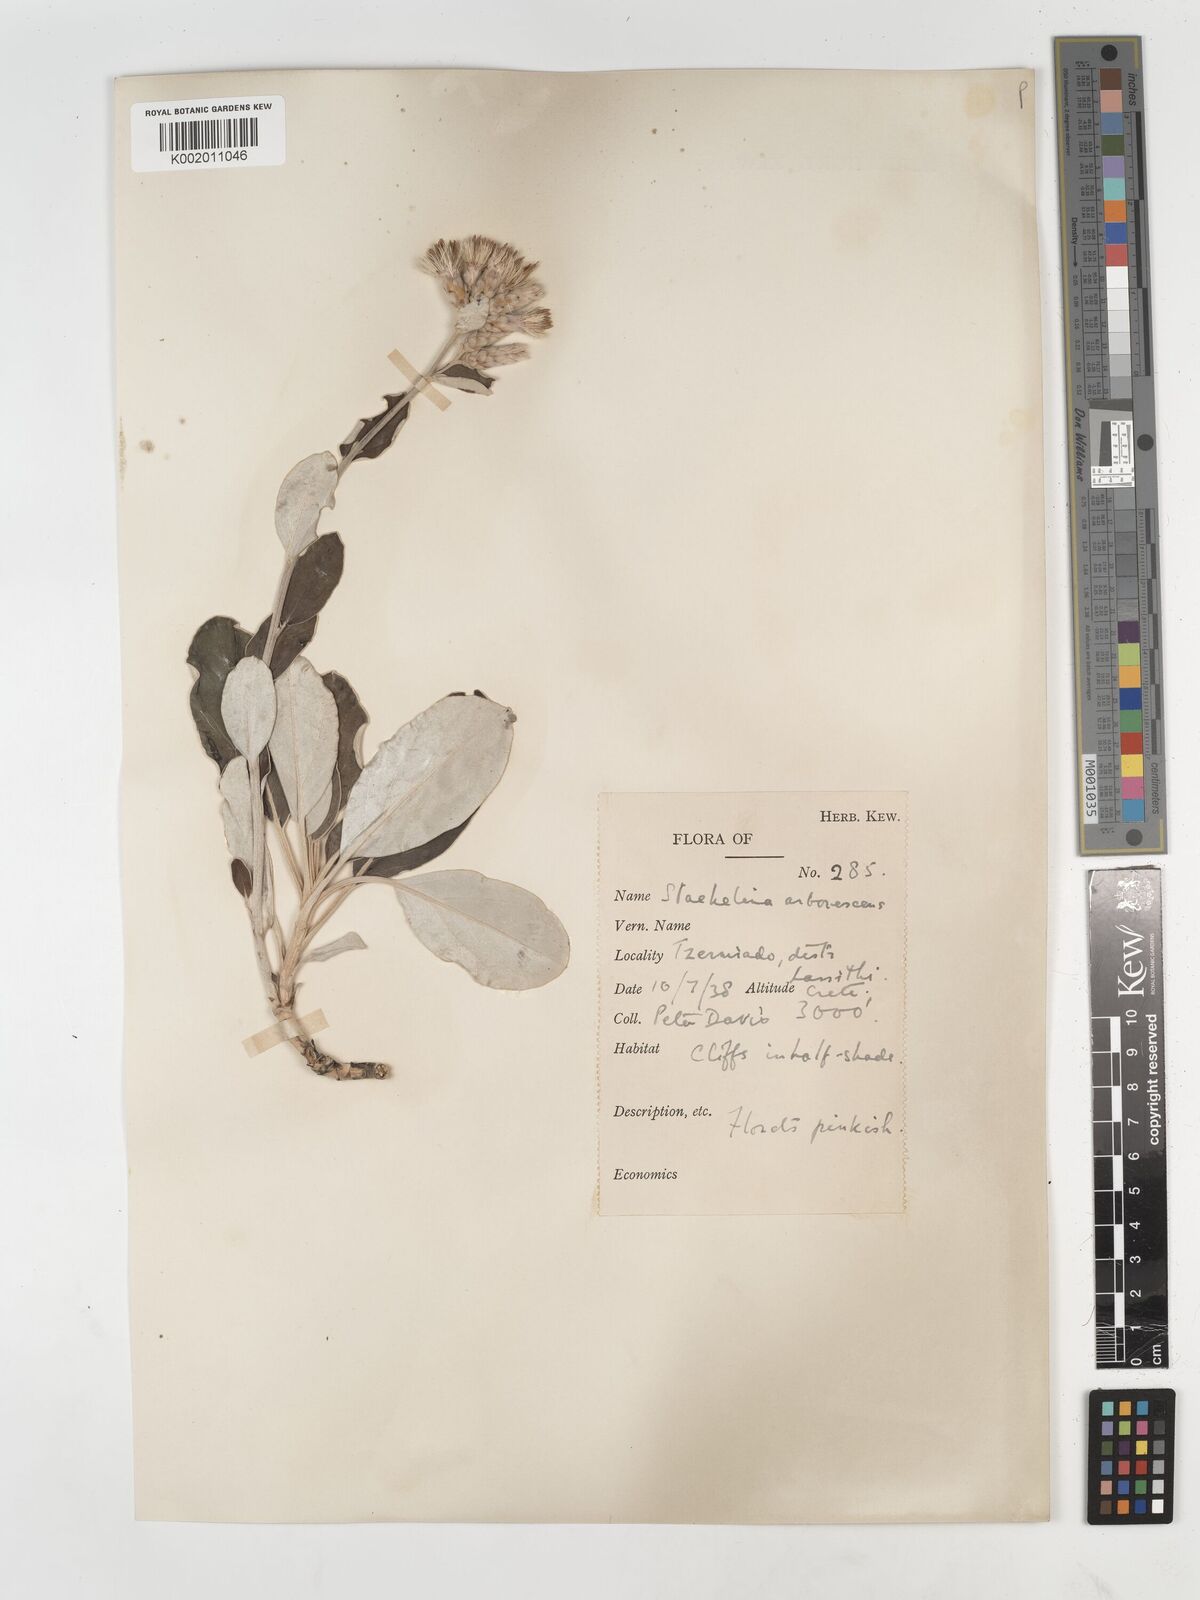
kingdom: Plantae
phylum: Tracheophyta
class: Magnoliopsida
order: Asterales
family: Asteraceae
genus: Staehelina
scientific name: Staehelina petiolata
